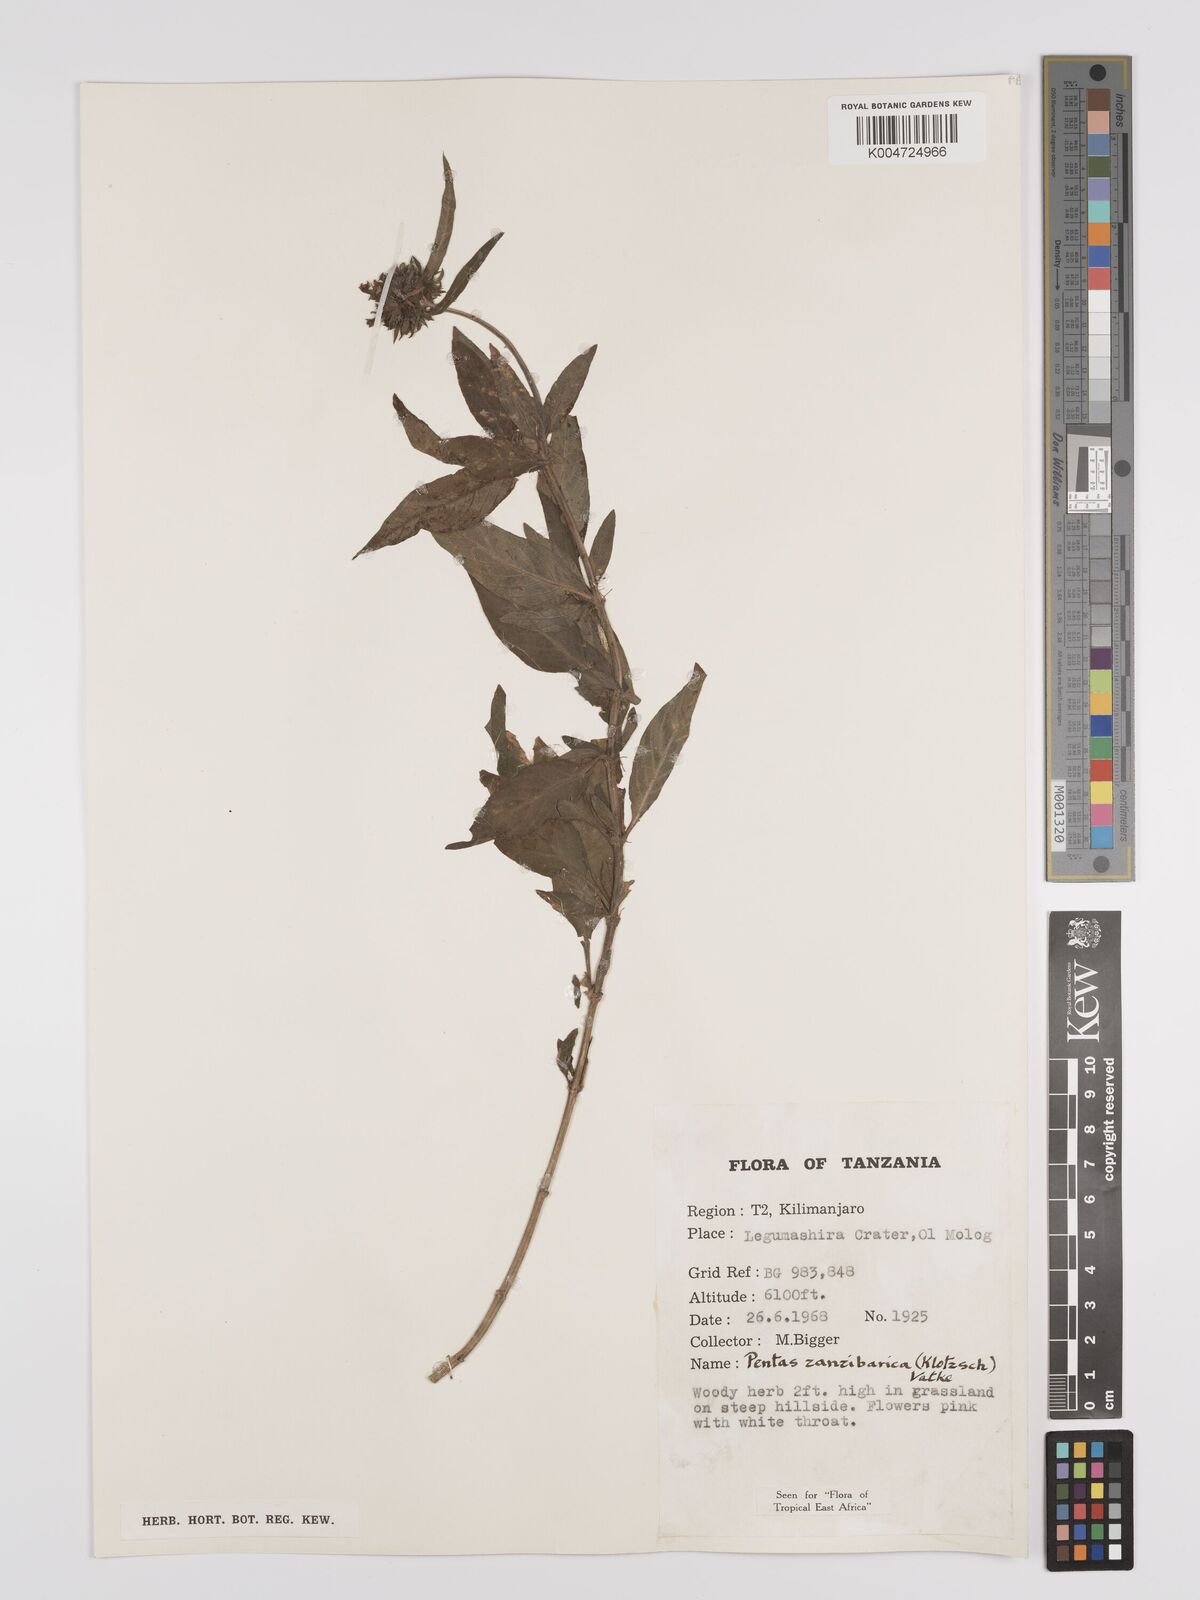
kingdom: Plantae
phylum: Tracheophyta
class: Magnoliopsida
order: Gentianales
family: Rubiaceae
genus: Pentas
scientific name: Pentas zanzibarica
